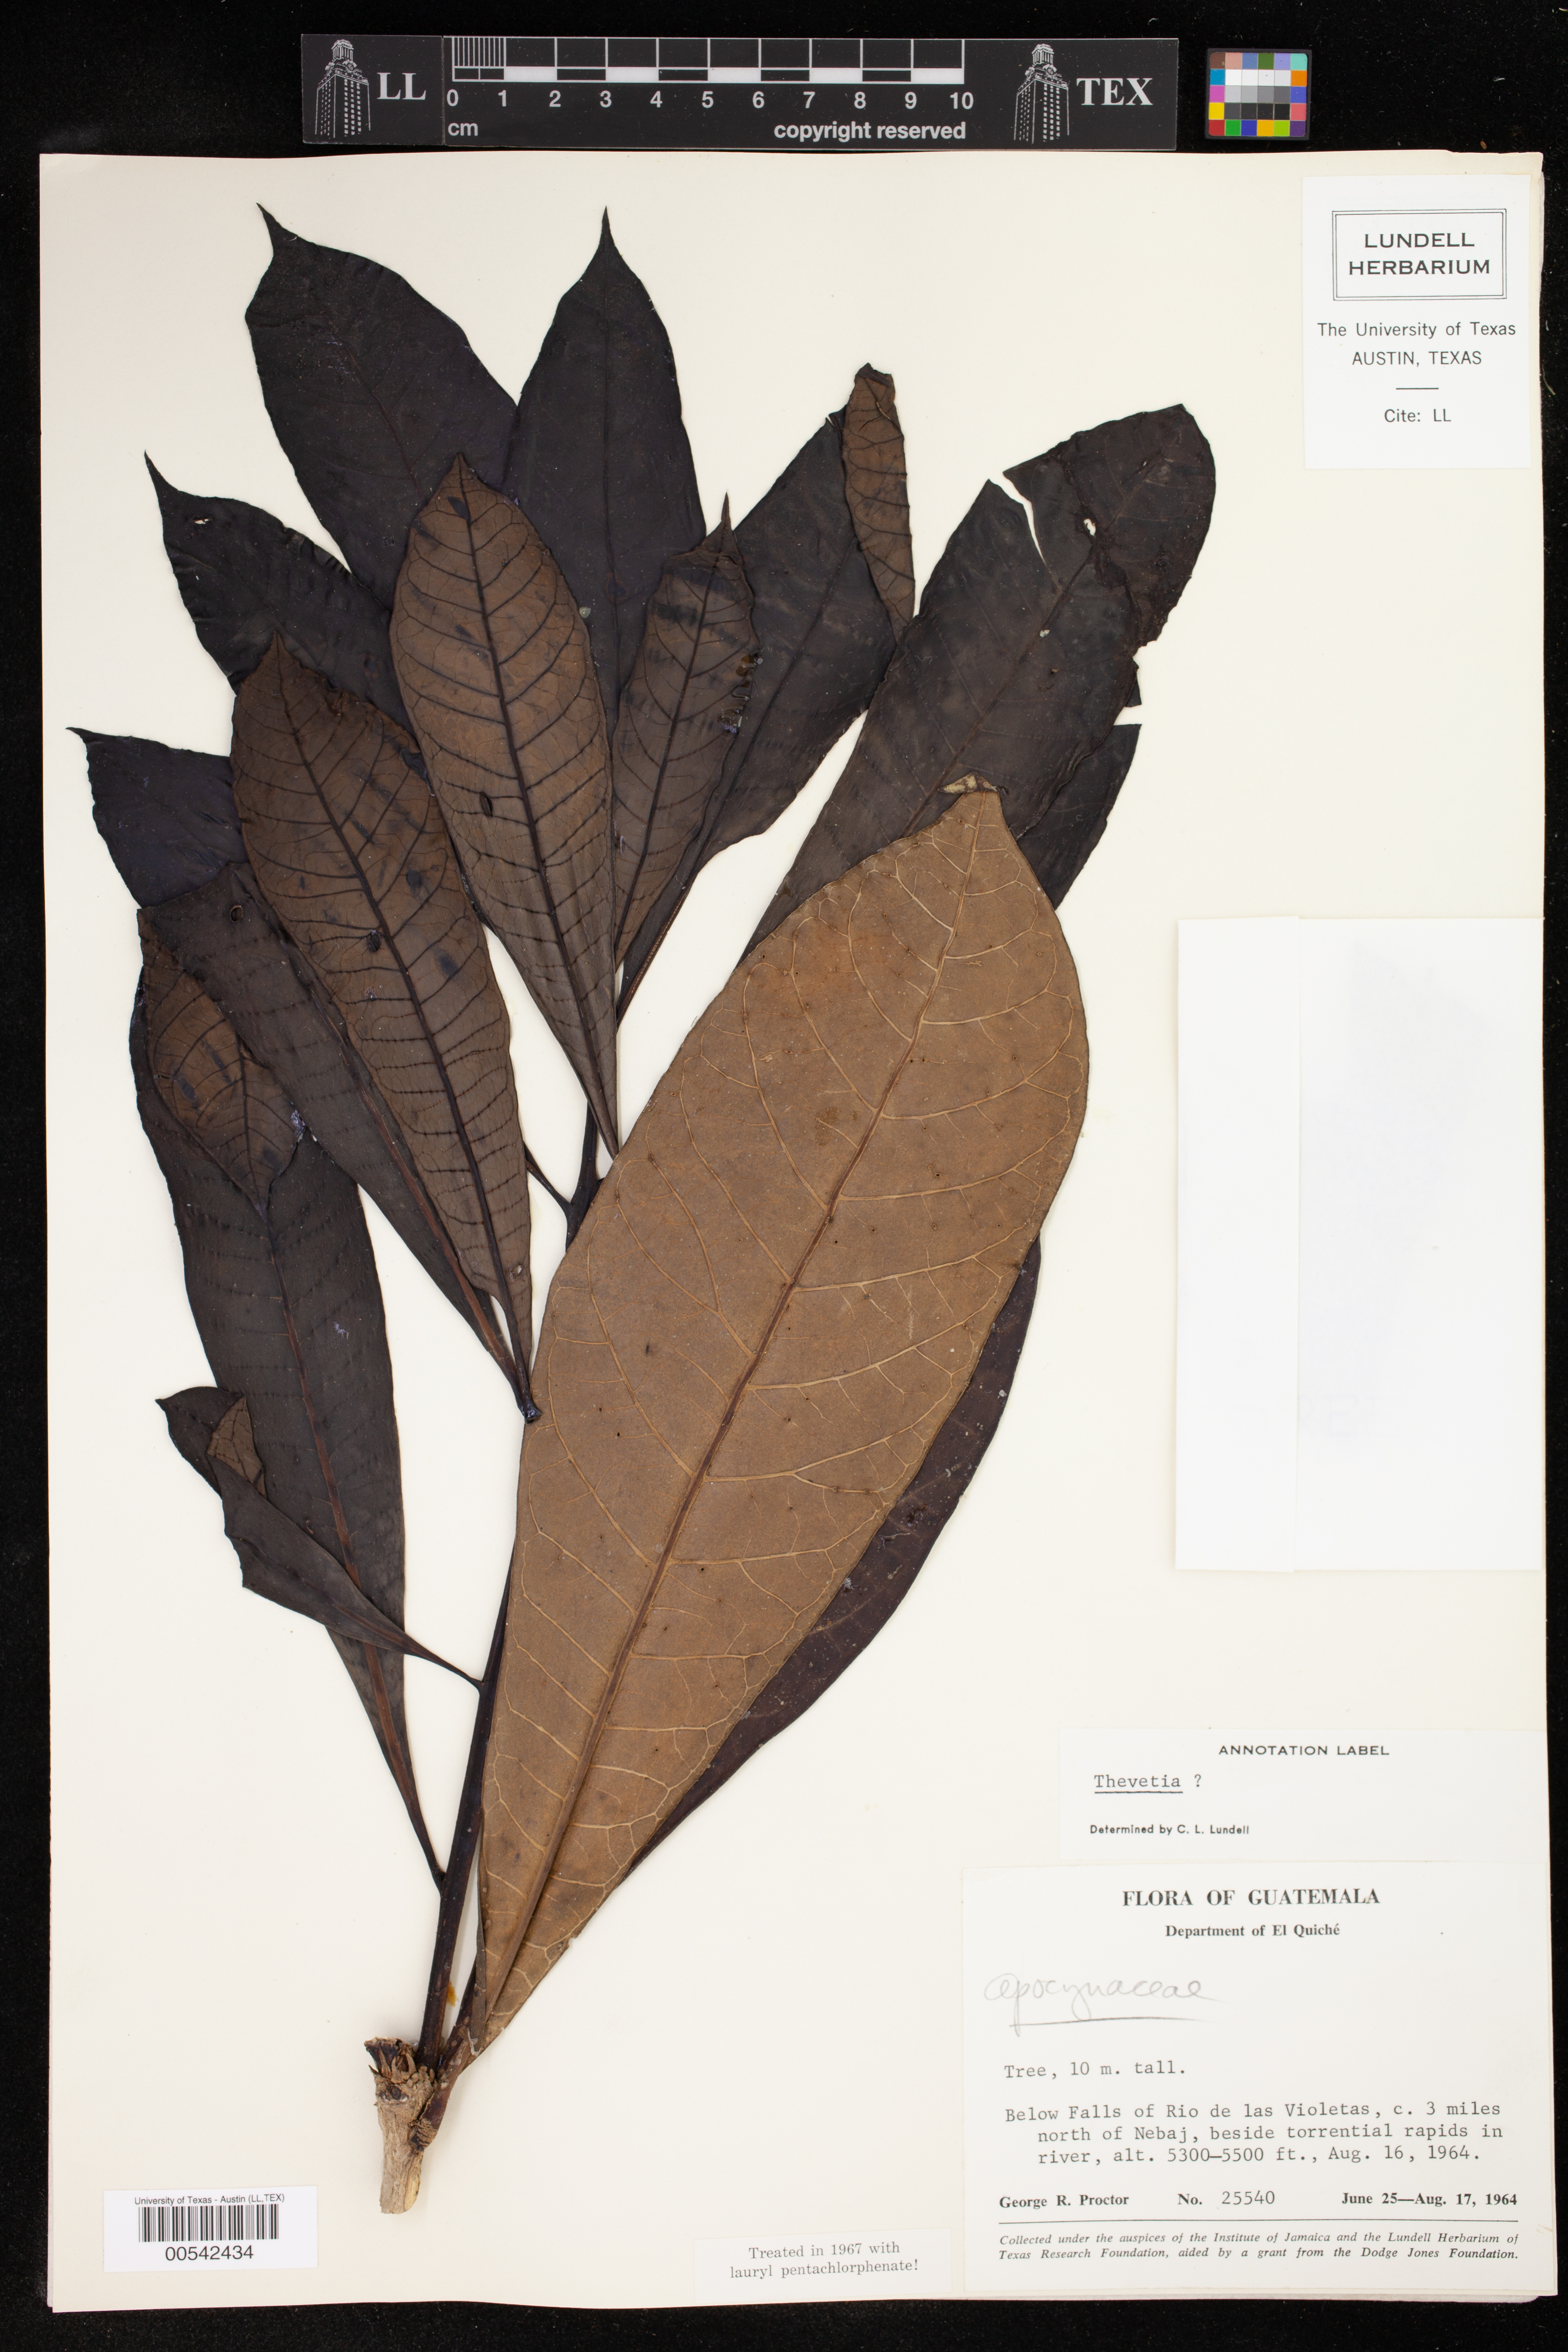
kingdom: Plantae
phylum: Tracheophyta
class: Magnoliopsida
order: Gentianales
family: Apocynaceae
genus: Thevetia
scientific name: Thevetia
